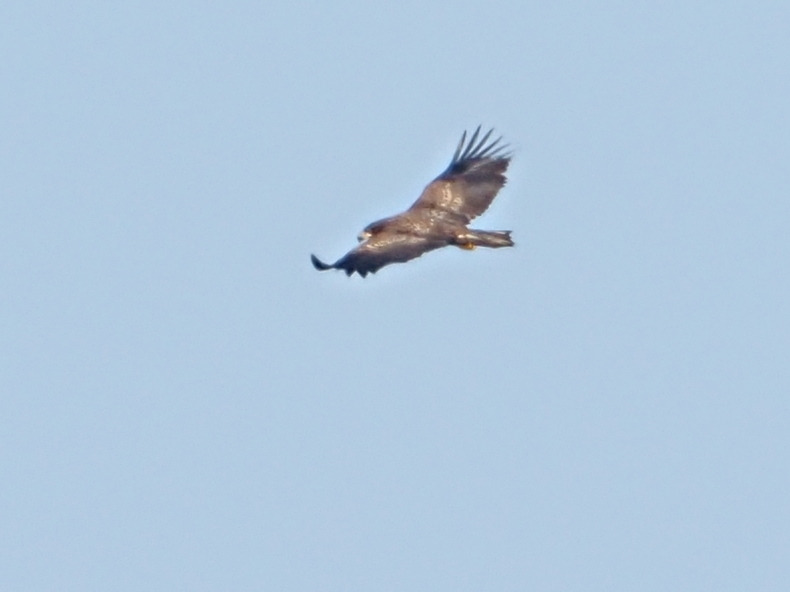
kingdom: Animalia
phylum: Chordata
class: Aves
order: Accipitriformes
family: Accipitridae
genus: Haliaeetus
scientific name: Haliaeetus albicilla
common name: Havørn
